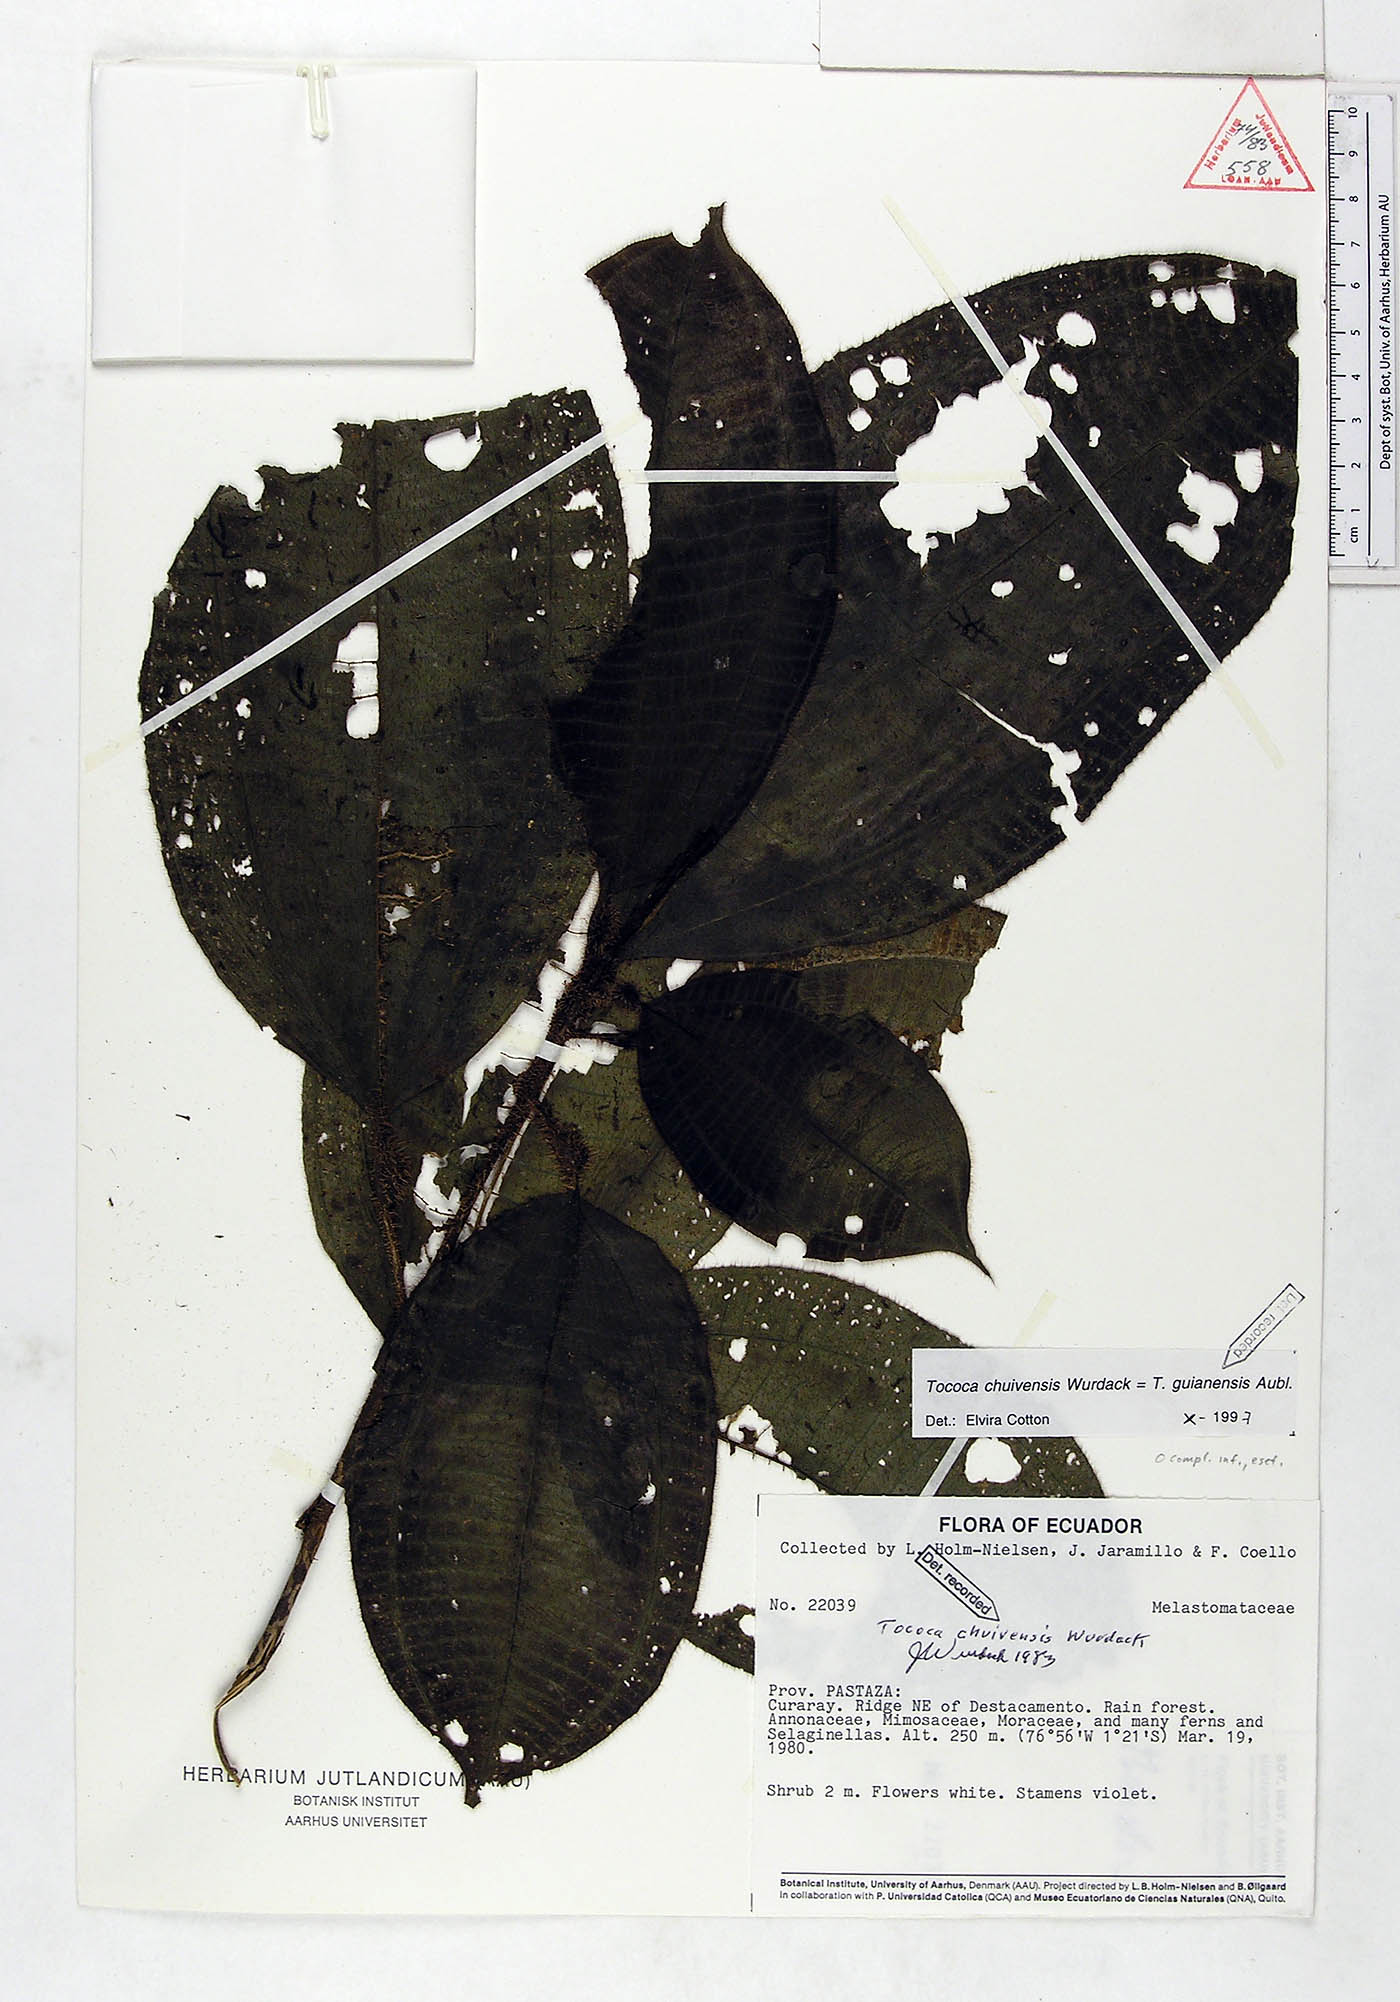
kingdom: Plantae
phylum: Tracheophyta
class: Magnoliopsida
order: Myrtales
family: Melastomataceae
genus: Miconia
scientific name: Miconia tococa
